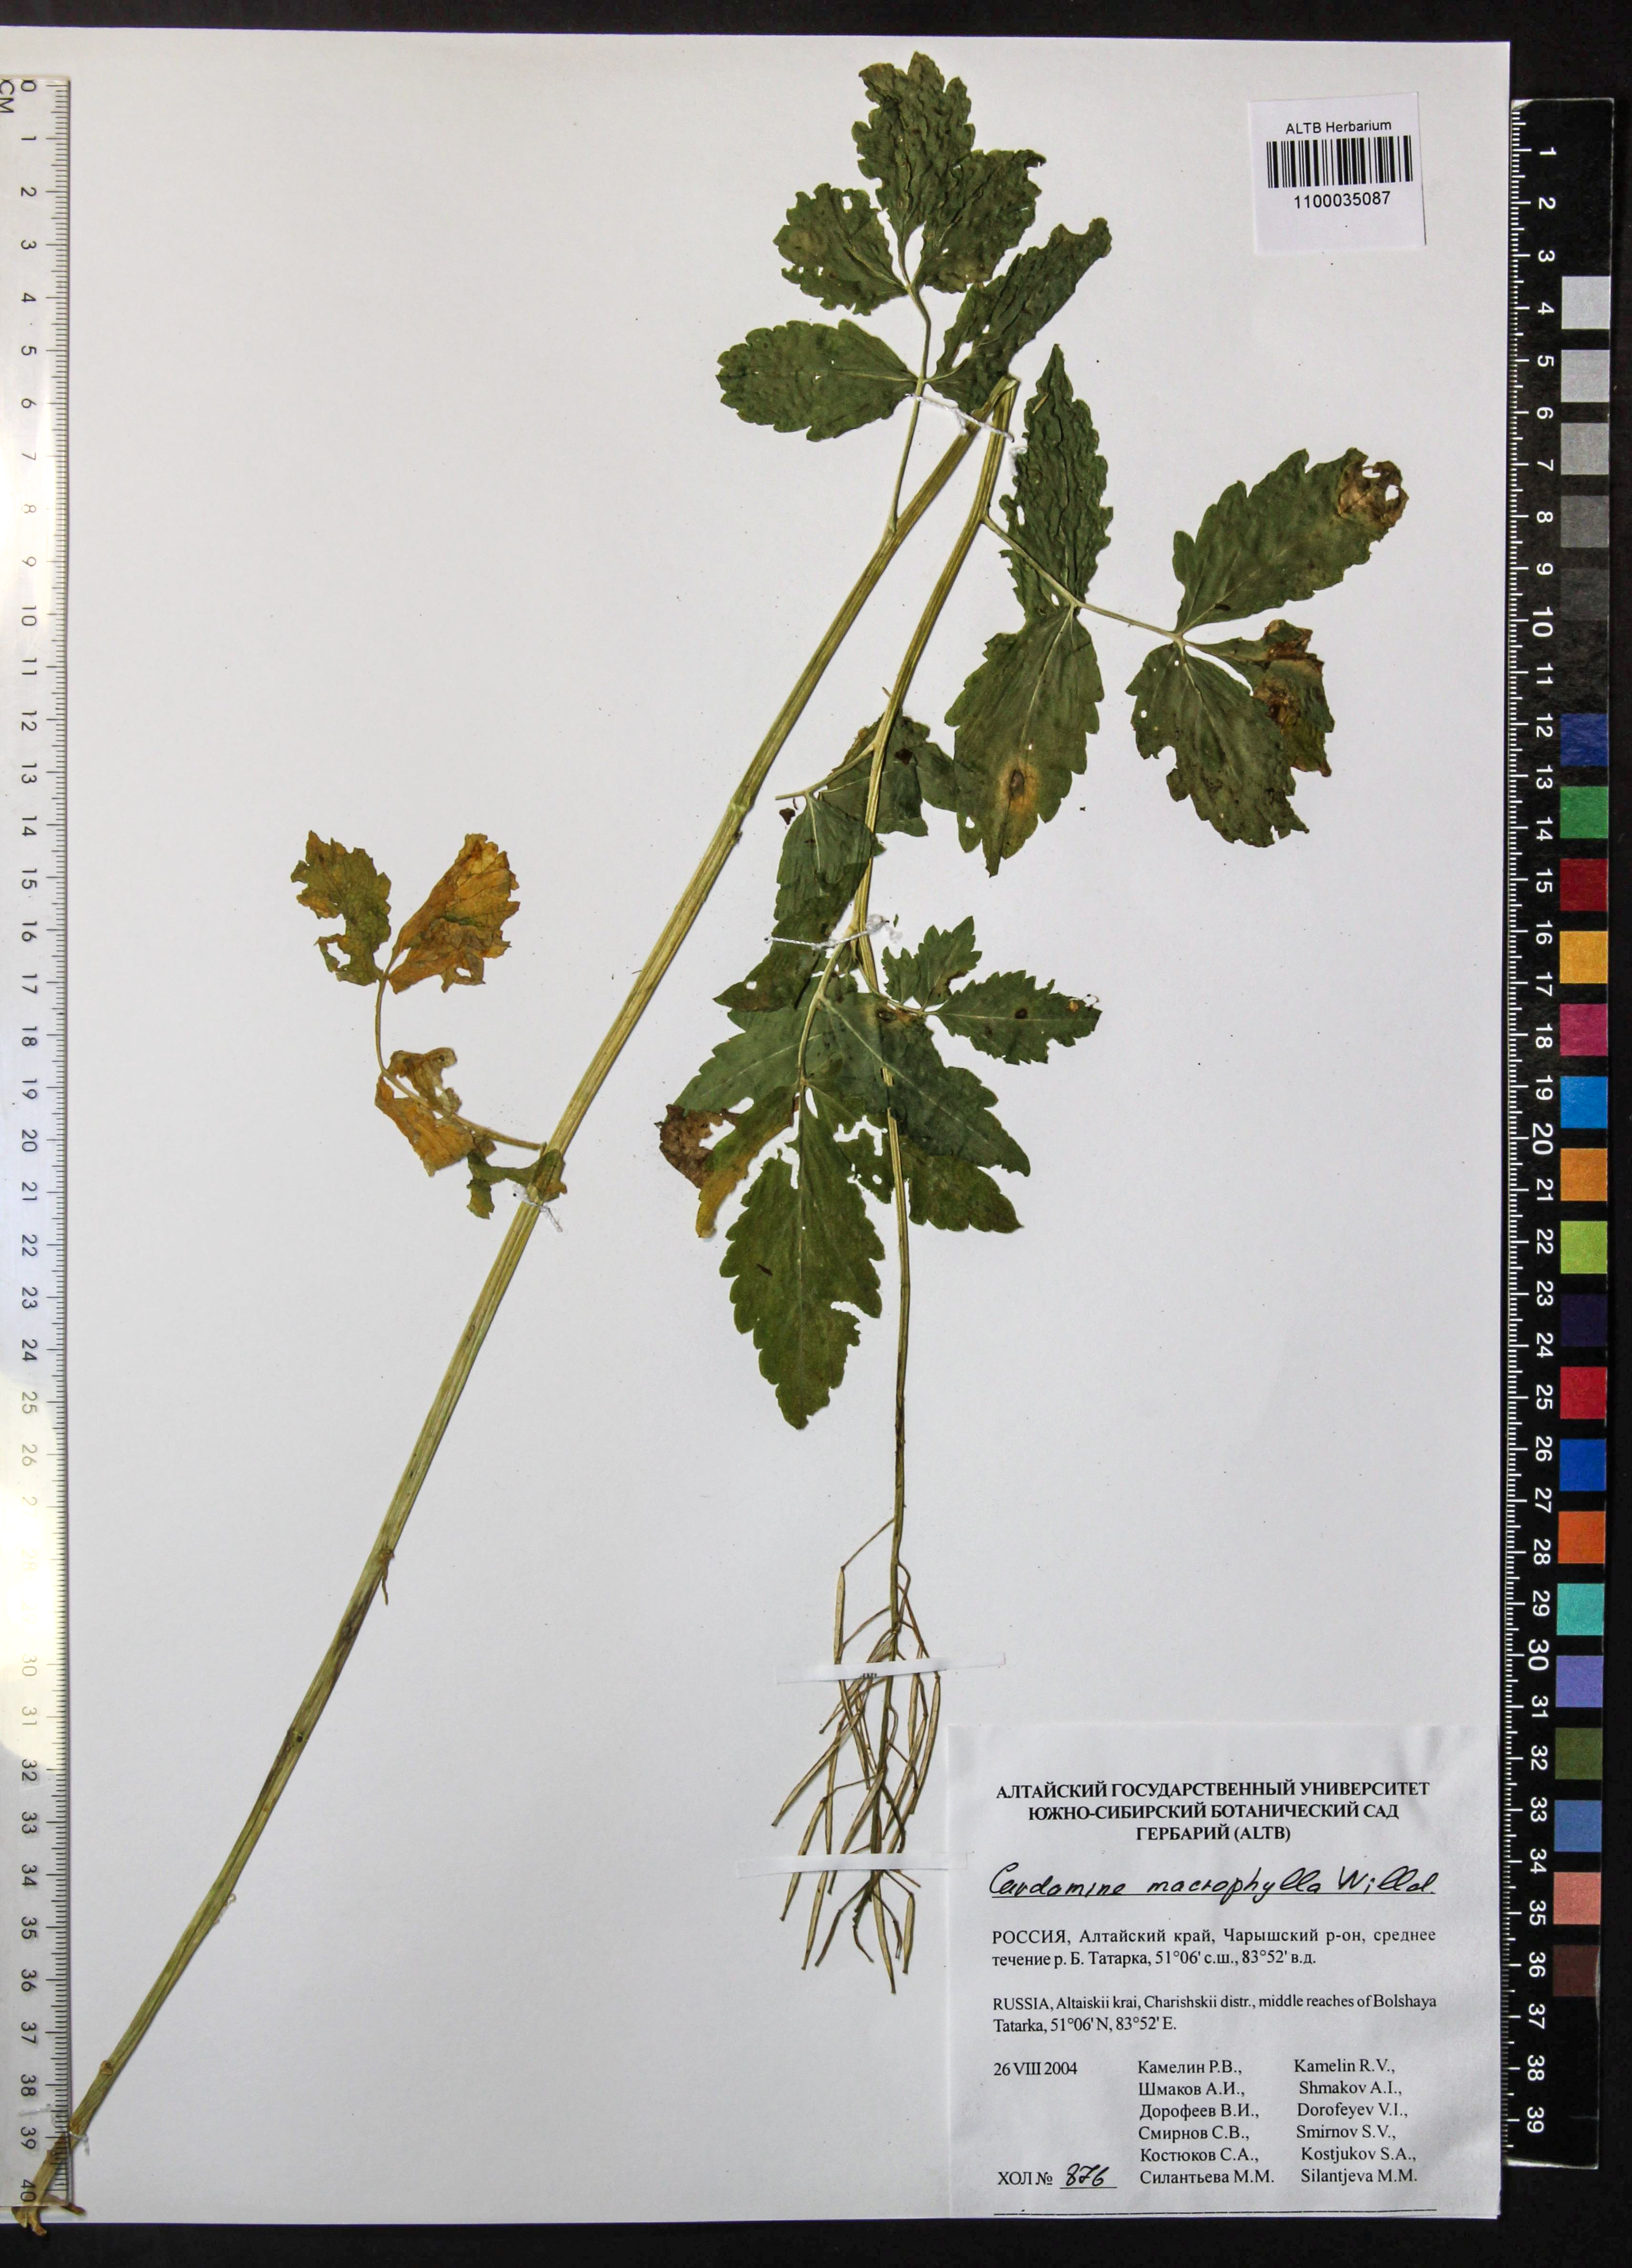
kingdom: Plantae
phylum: Tracheophyta
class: Magnoliopsida
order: Brassicales
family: Brassicaceae
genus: Cardamine
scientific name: Cardamine macrophylla
